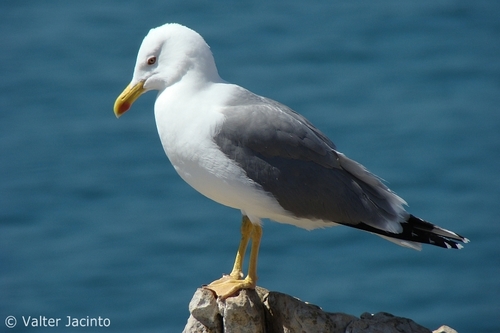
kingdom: Animalia
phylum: Chordata
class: Aves
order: Charadriiformes
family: Laridae
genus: Larus
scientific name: Larus michahellis
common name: Yellow-legged gull
